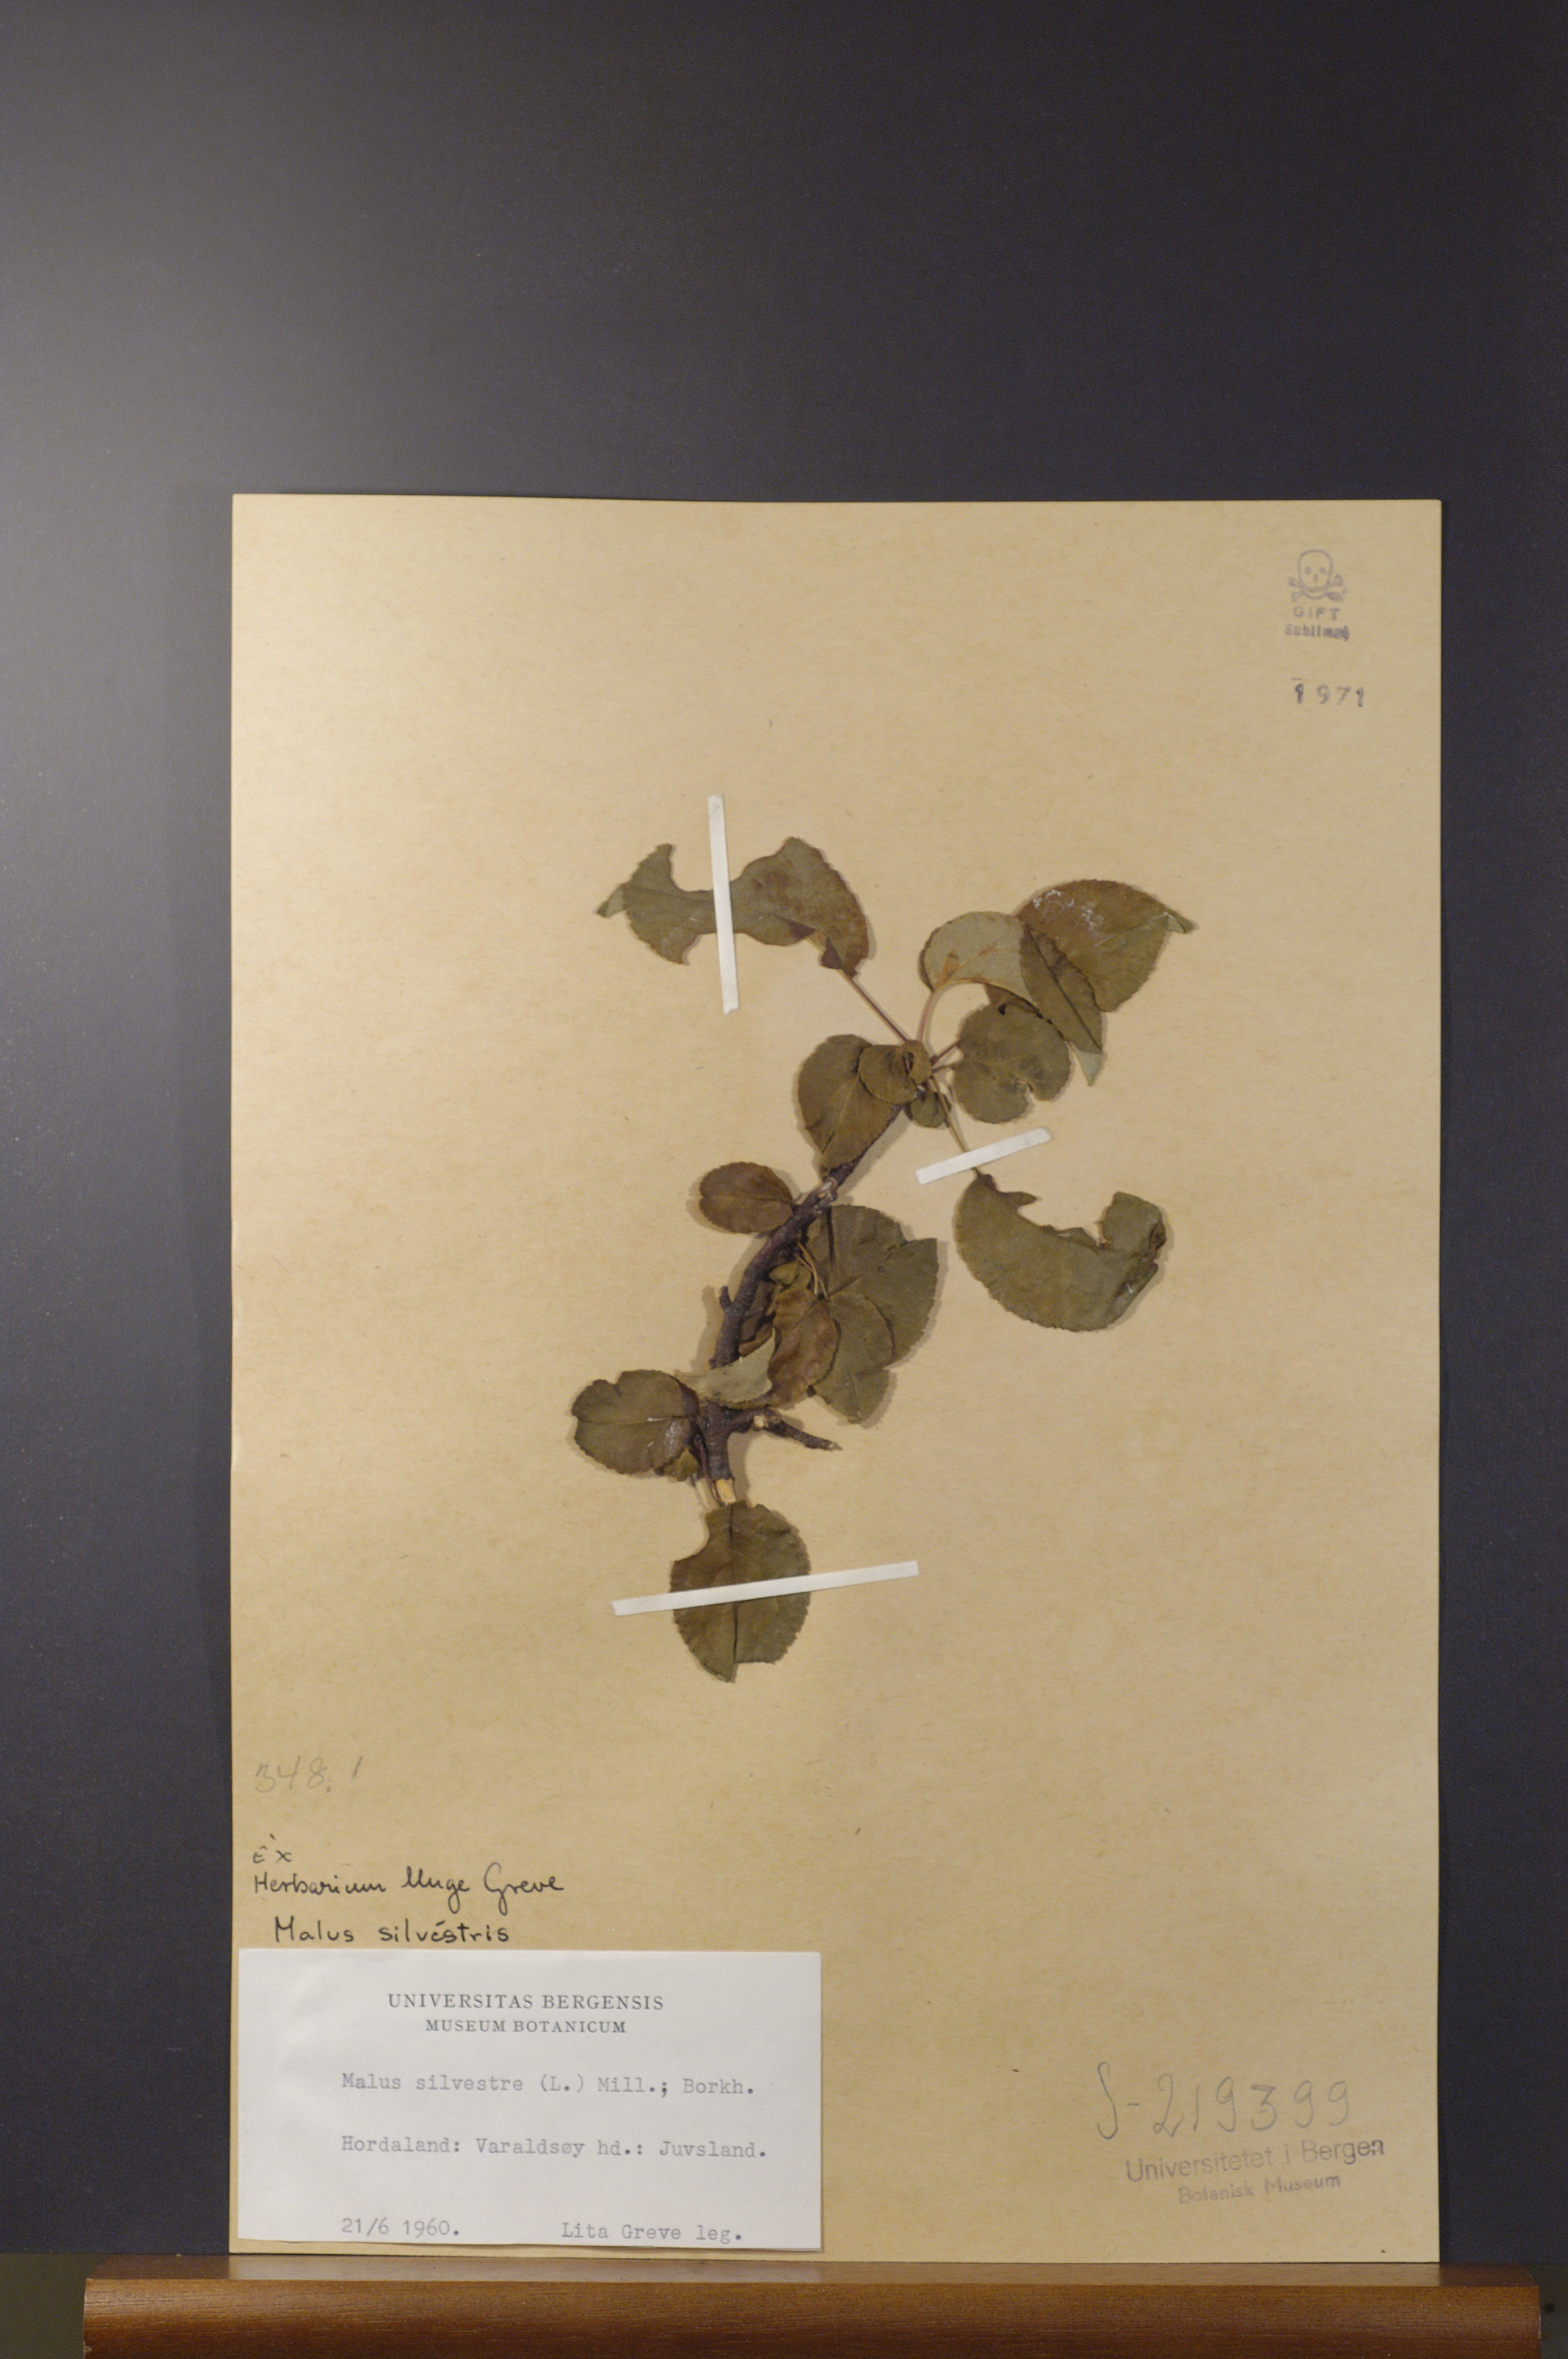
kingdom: Plantae
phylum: Tracheophyta
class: Magnoliopsida
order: Rosales
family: Rosaceae
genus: Malus
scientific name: Malus sylvestris
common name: Crab apple
